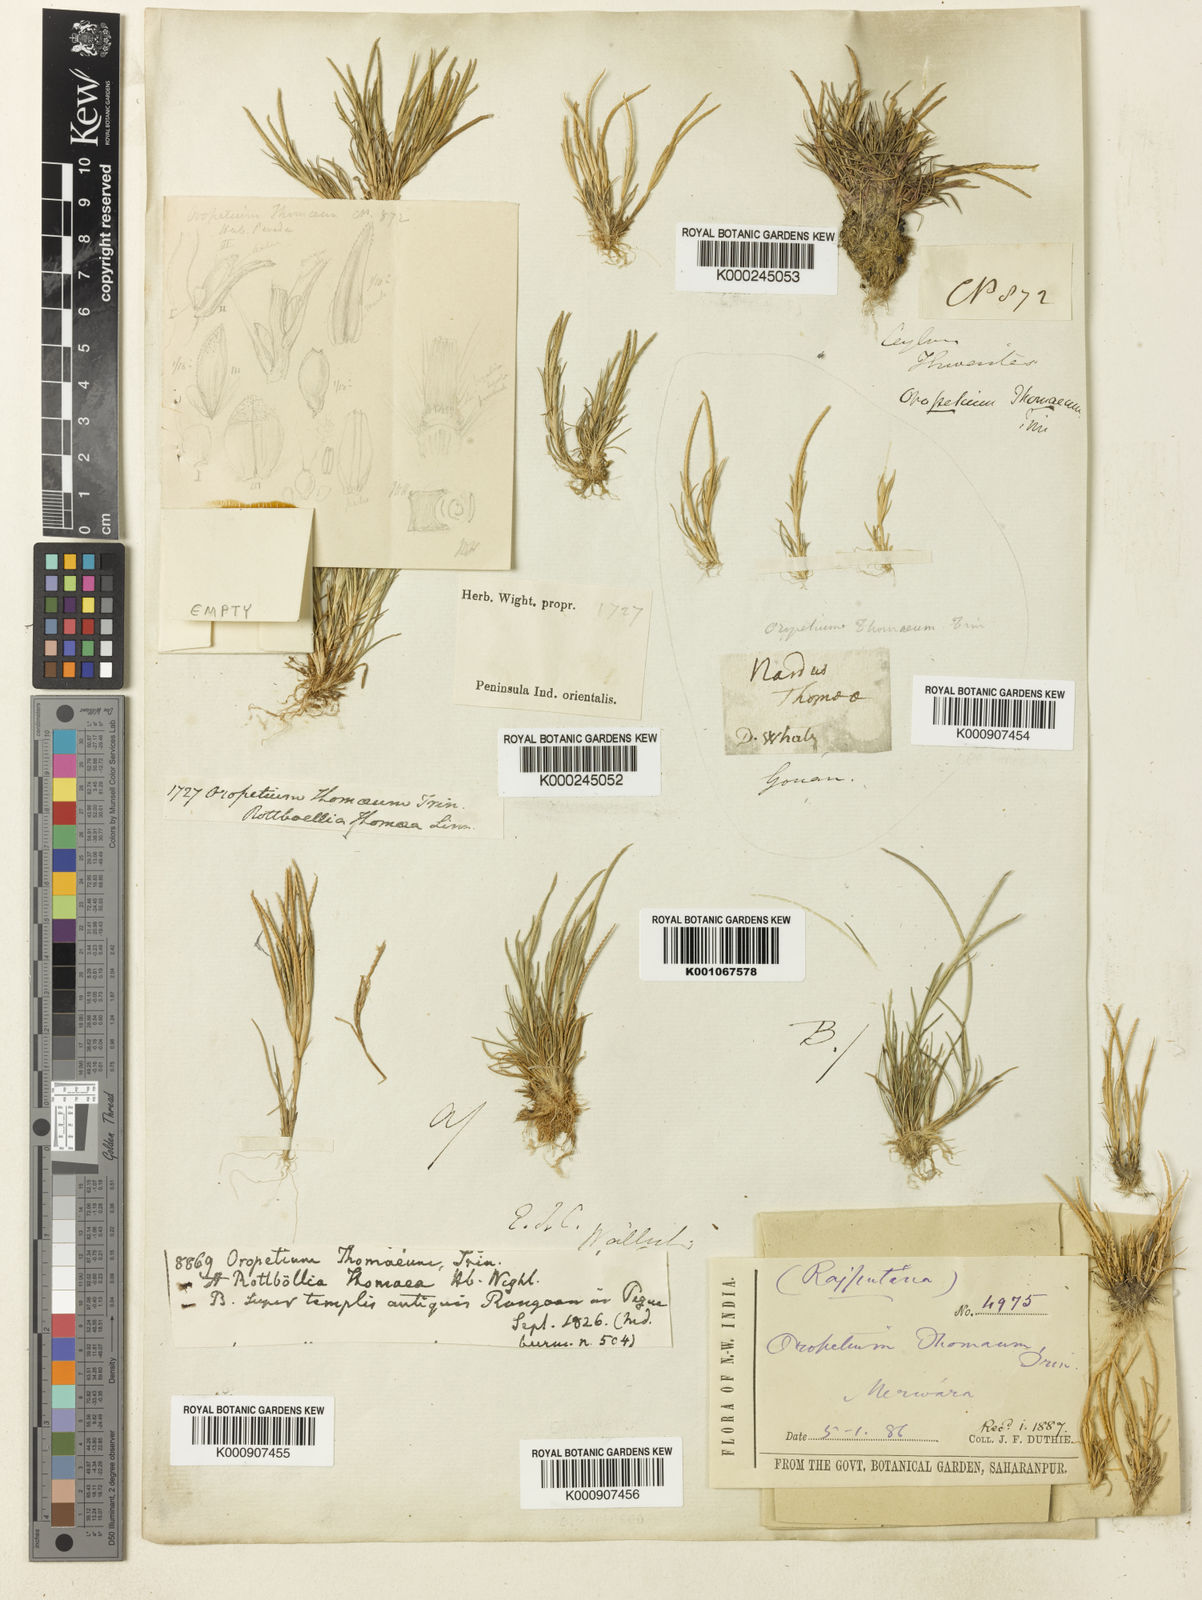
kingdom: Plantae
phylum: Tracheophyta
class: Liliopsida
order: Poales
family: Poaceae
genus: Oropetium
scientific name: Oropetium thomaeum
